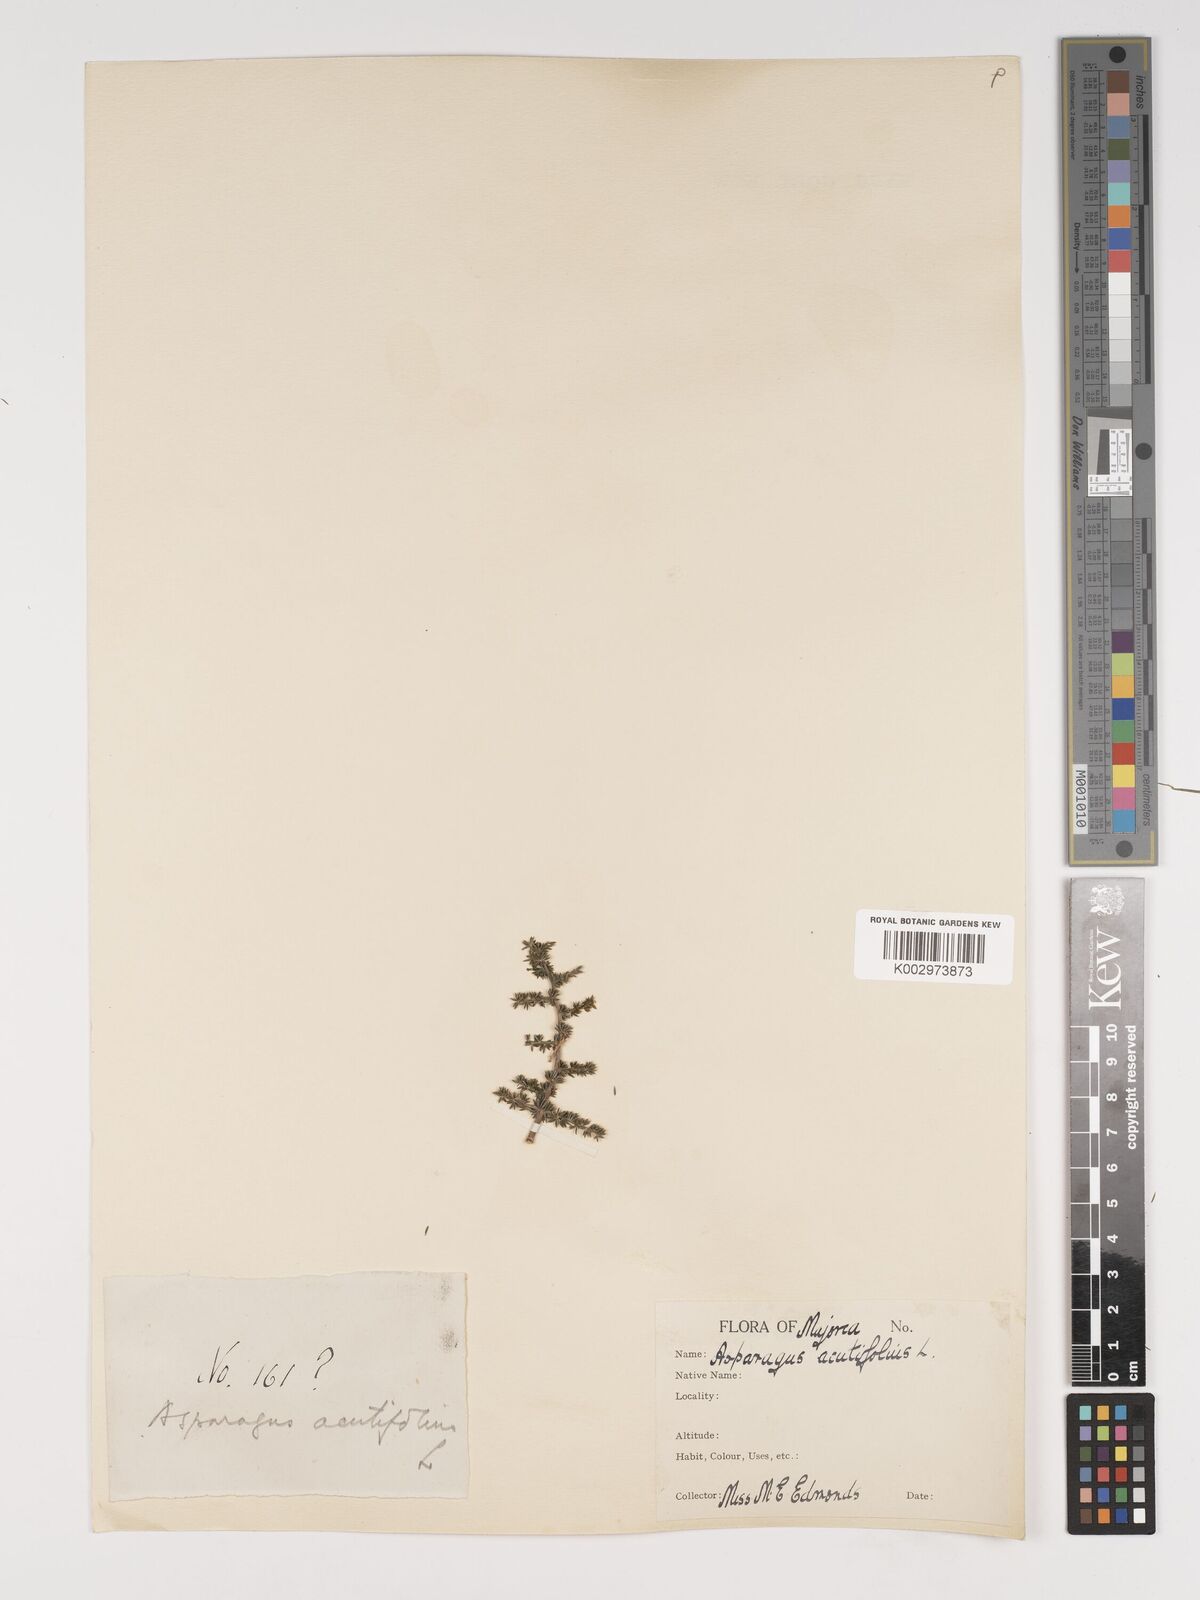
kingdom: Plantae
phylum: Tracheophyta
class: Liliopsida
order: Asparagales
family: Asparagaceae
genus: Asparagus
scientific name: Asparagus acutifolius
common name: Wild asparagus
